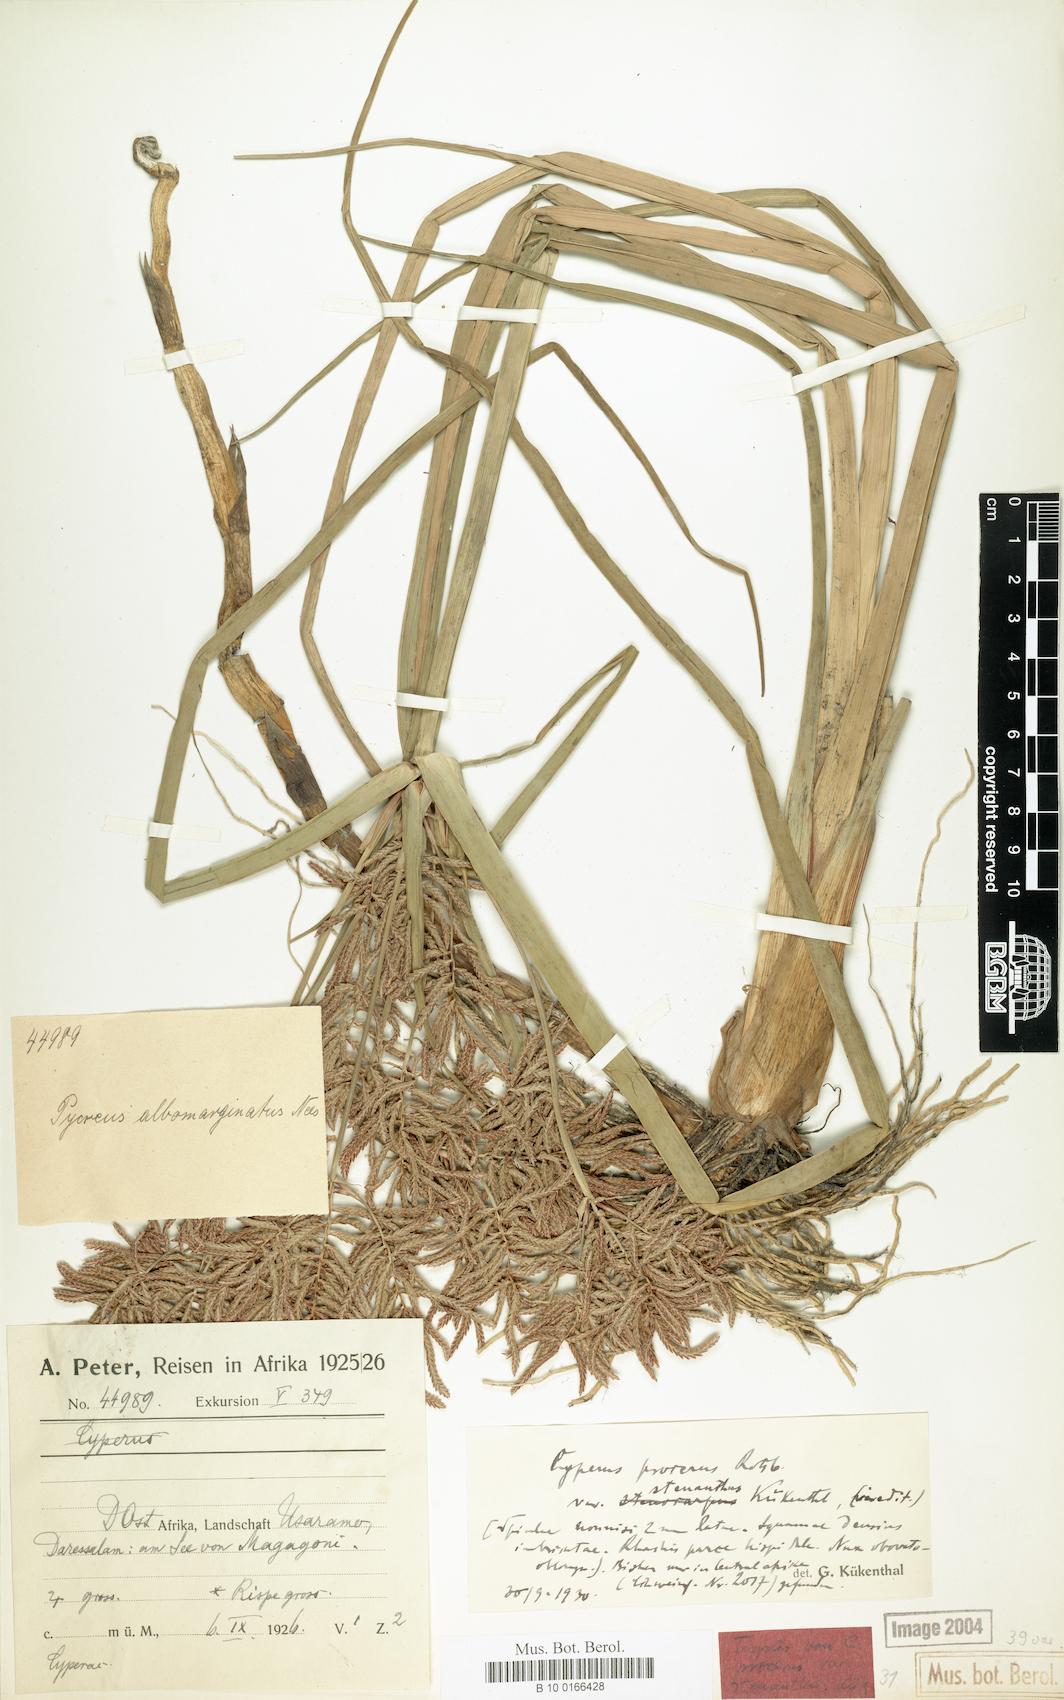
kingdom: Plantae
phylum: Tracheophyta
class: Liliopsida
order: Poales
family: Cyperaceae
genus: Cyperus
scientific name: Cyperus procerus
